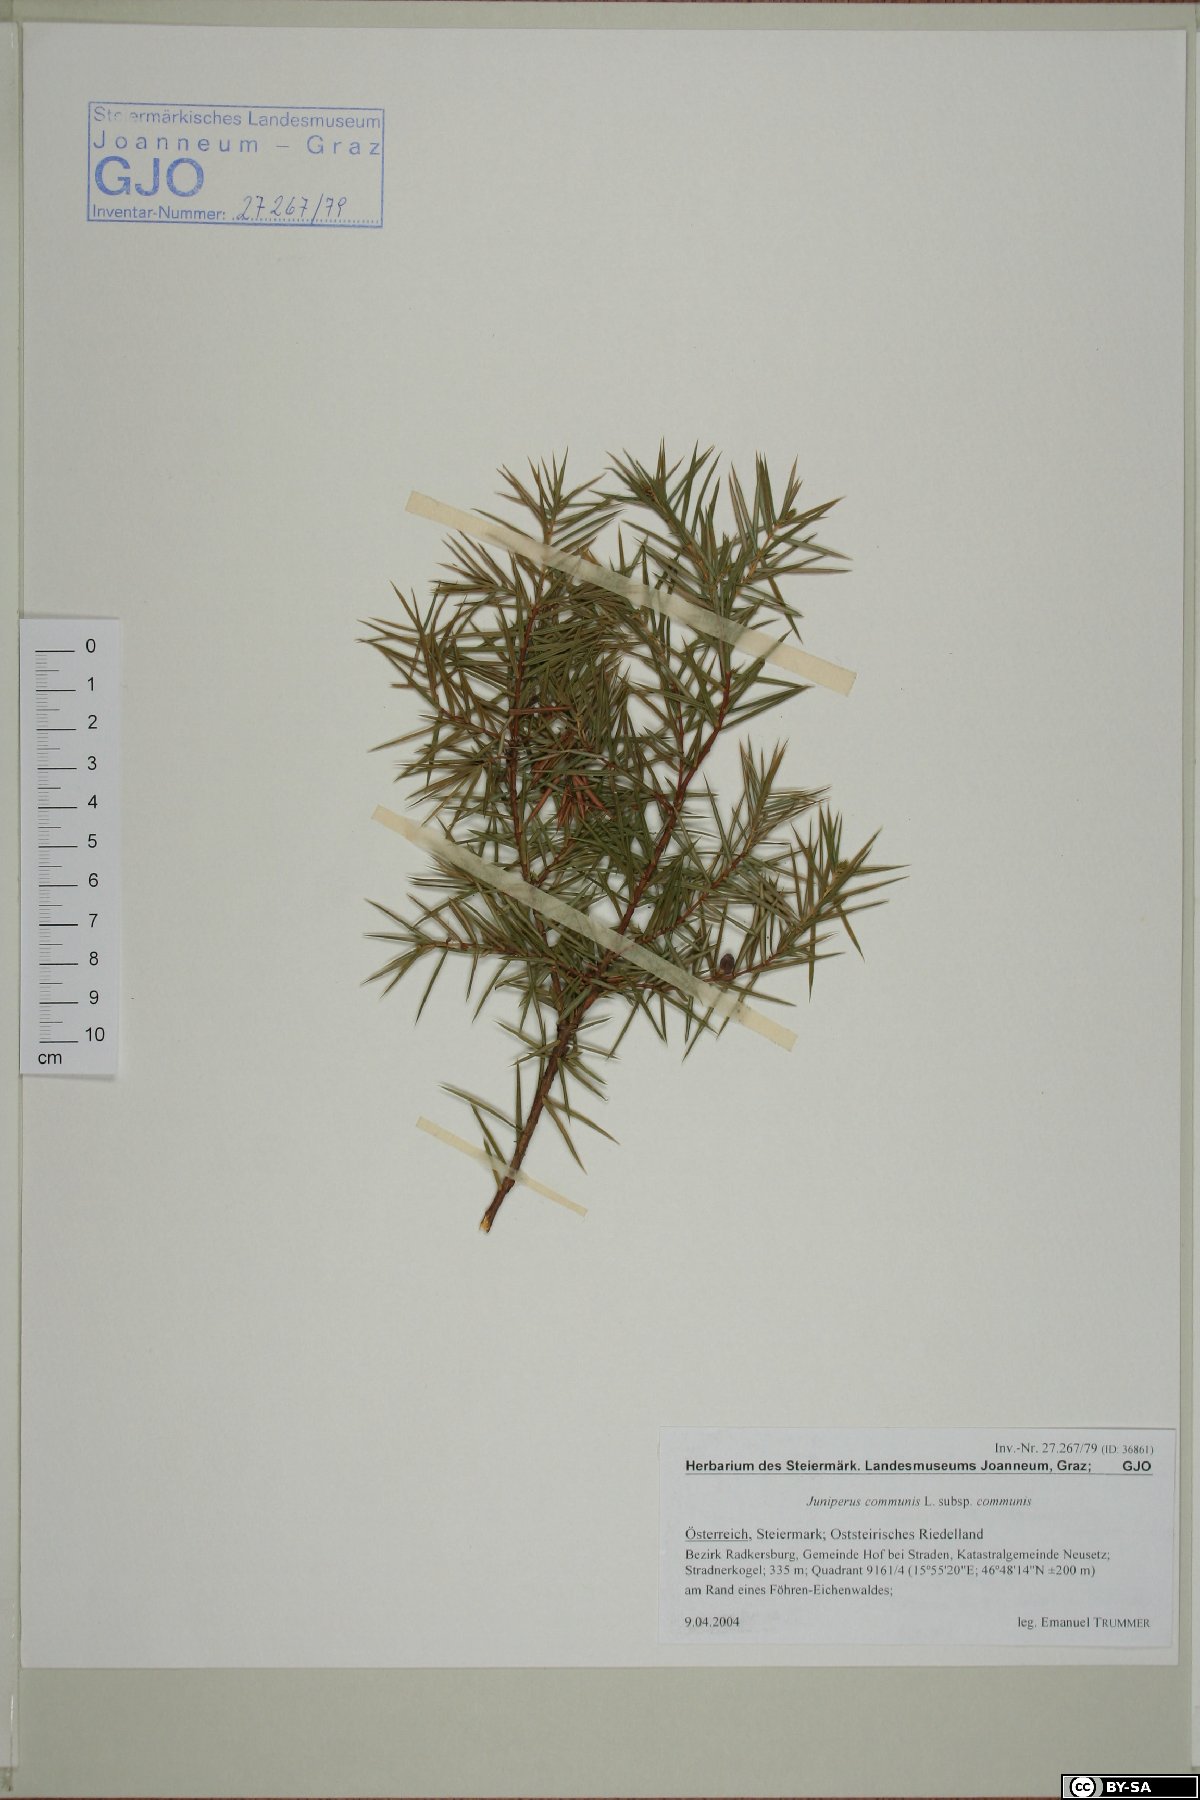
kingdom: Plantae
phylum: Tracheophyta
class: Pinopsida
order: Pinales
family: Cupressaceae
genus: Juniperus
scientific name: Juniperus communis
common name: Common juniper
